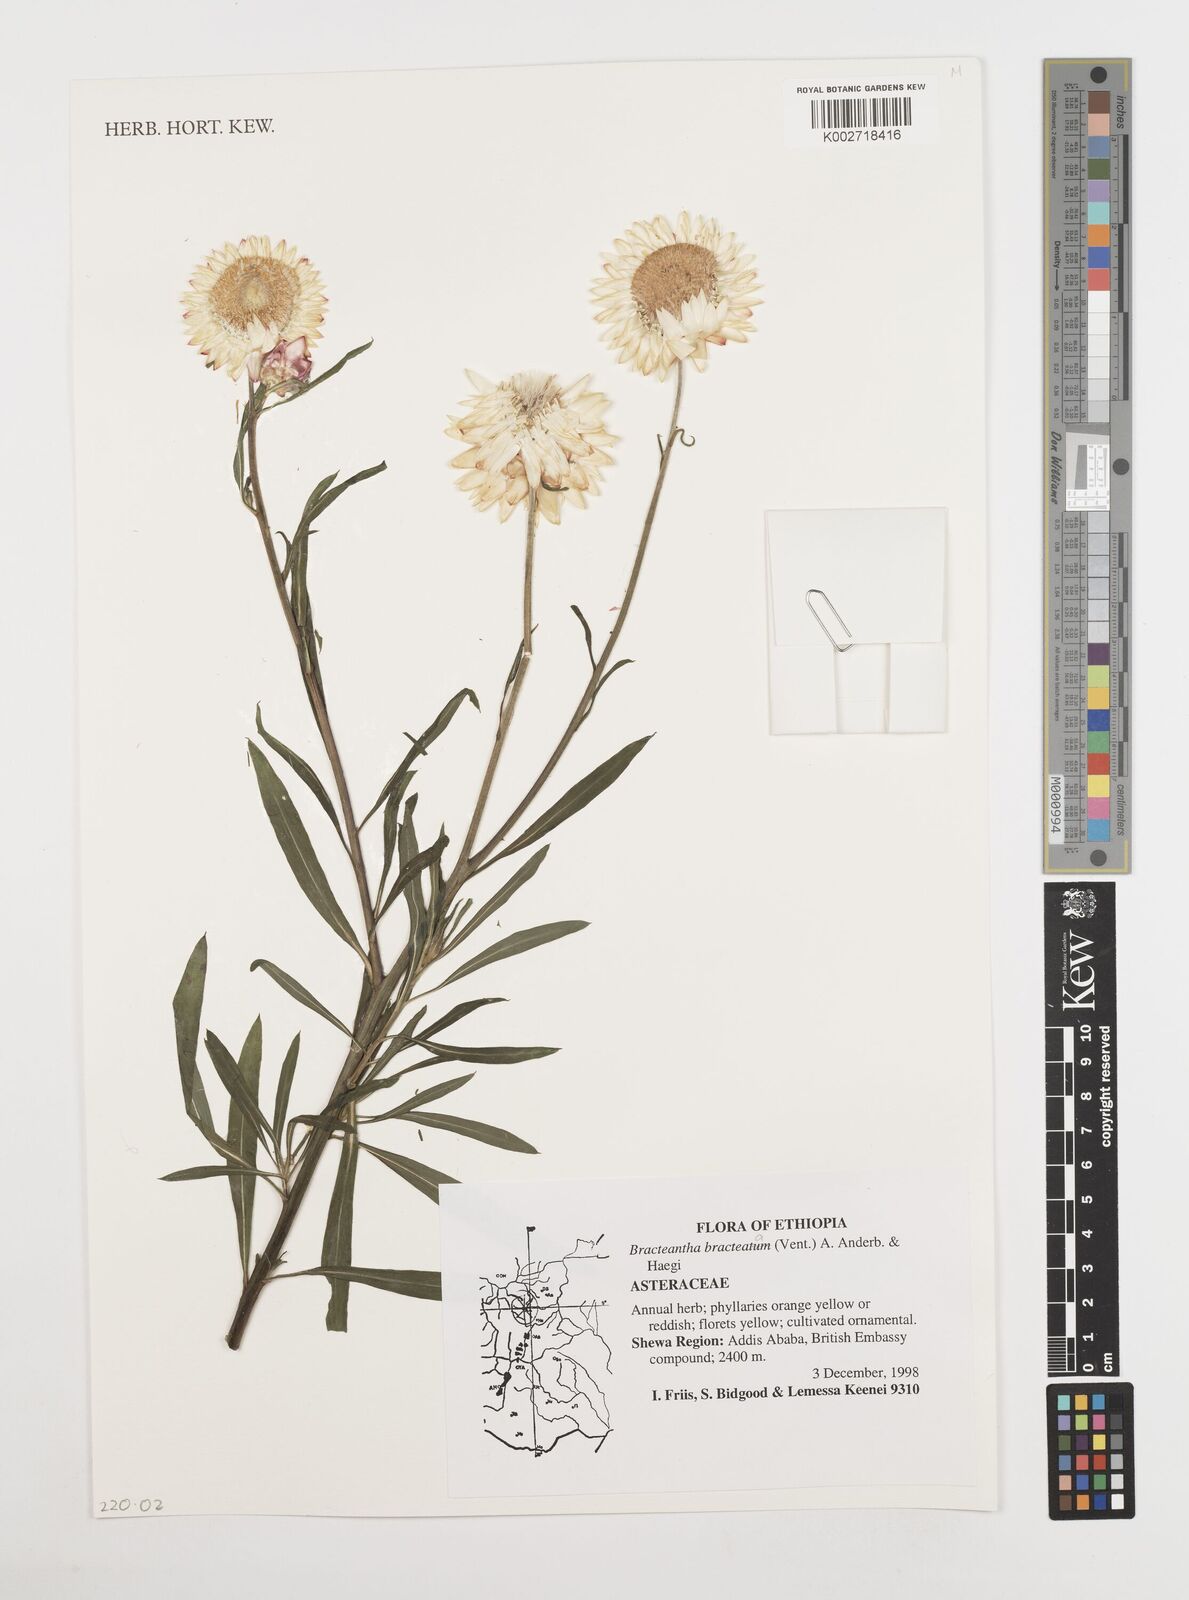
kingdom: Plantae
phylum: Tracheophyta
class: Magnoliopsida
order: Asterales
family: Asteraceae
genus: Xerochrysum
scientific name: Xerochrysum bracteatum
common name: Bracted strawflower
